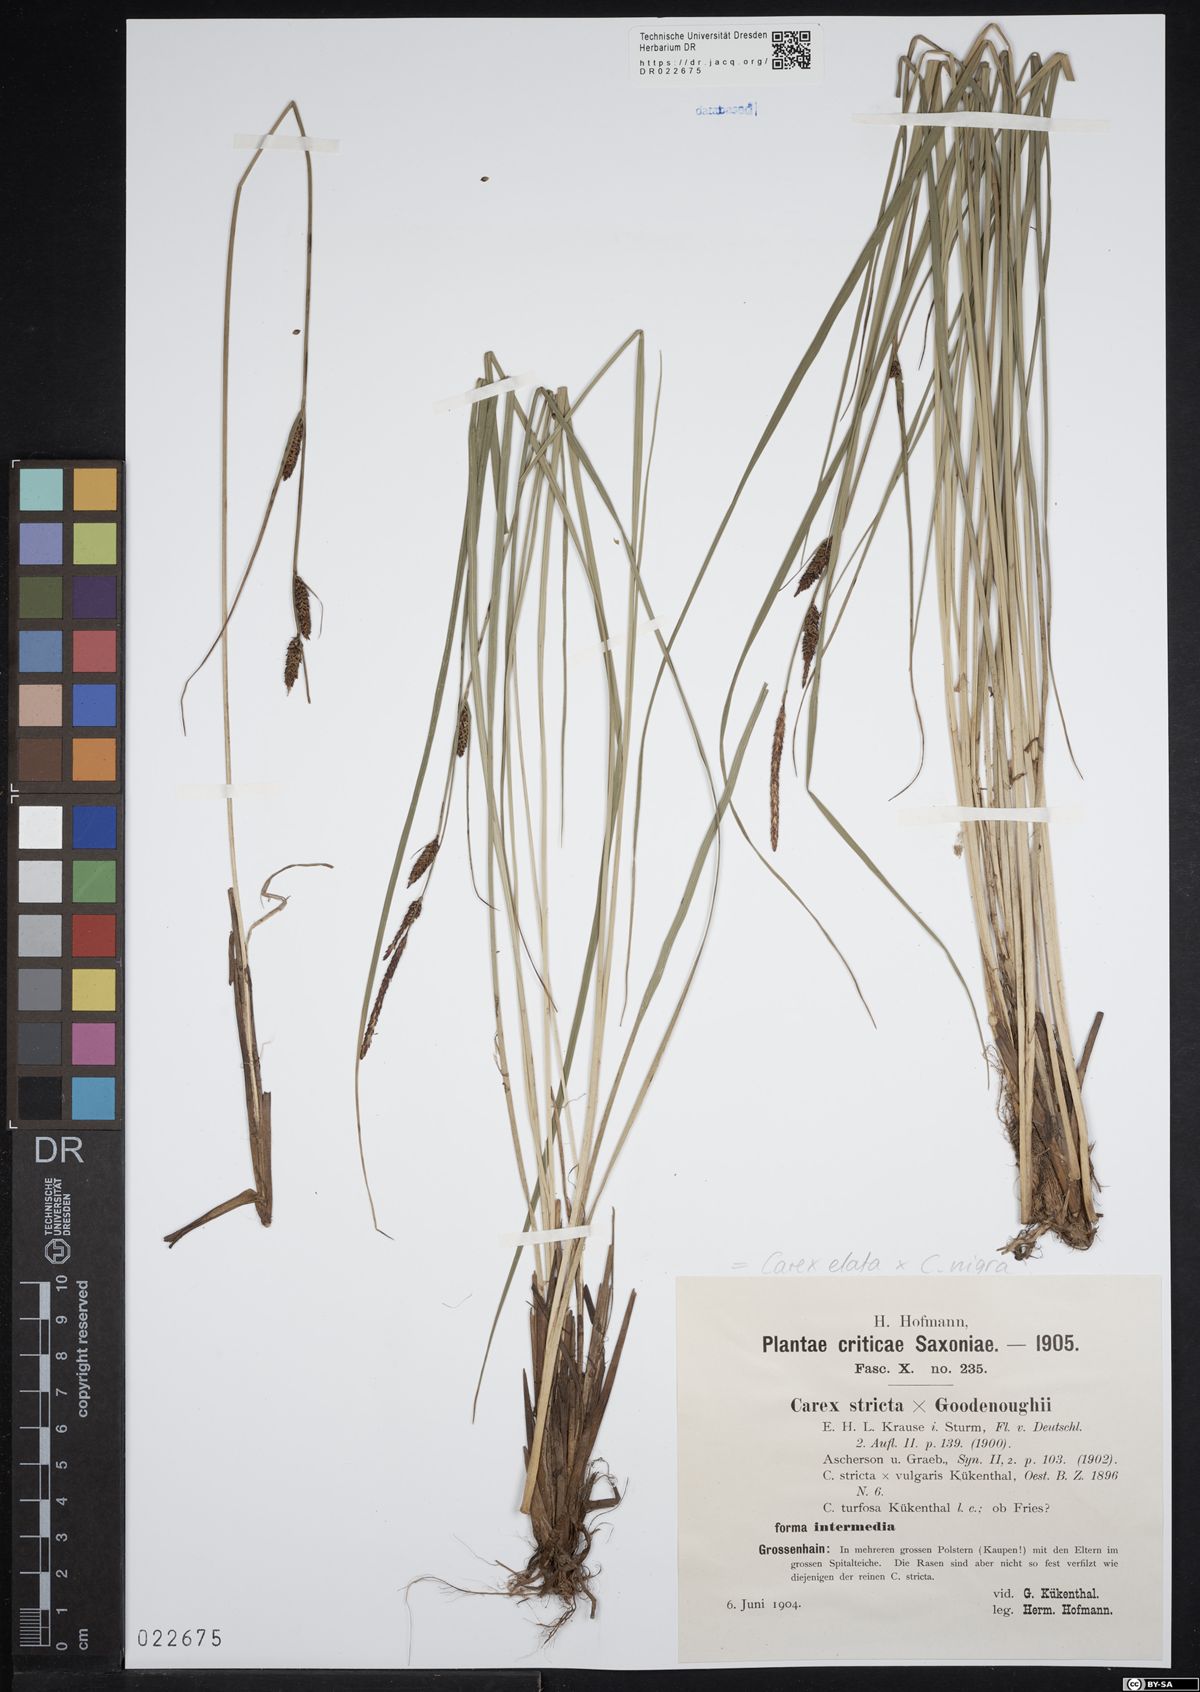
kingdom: Plantae
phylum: Tracheophyta
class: Liliopsida
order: Poales
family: Cyperaceae
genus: Carex
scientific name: Carex turfosa
